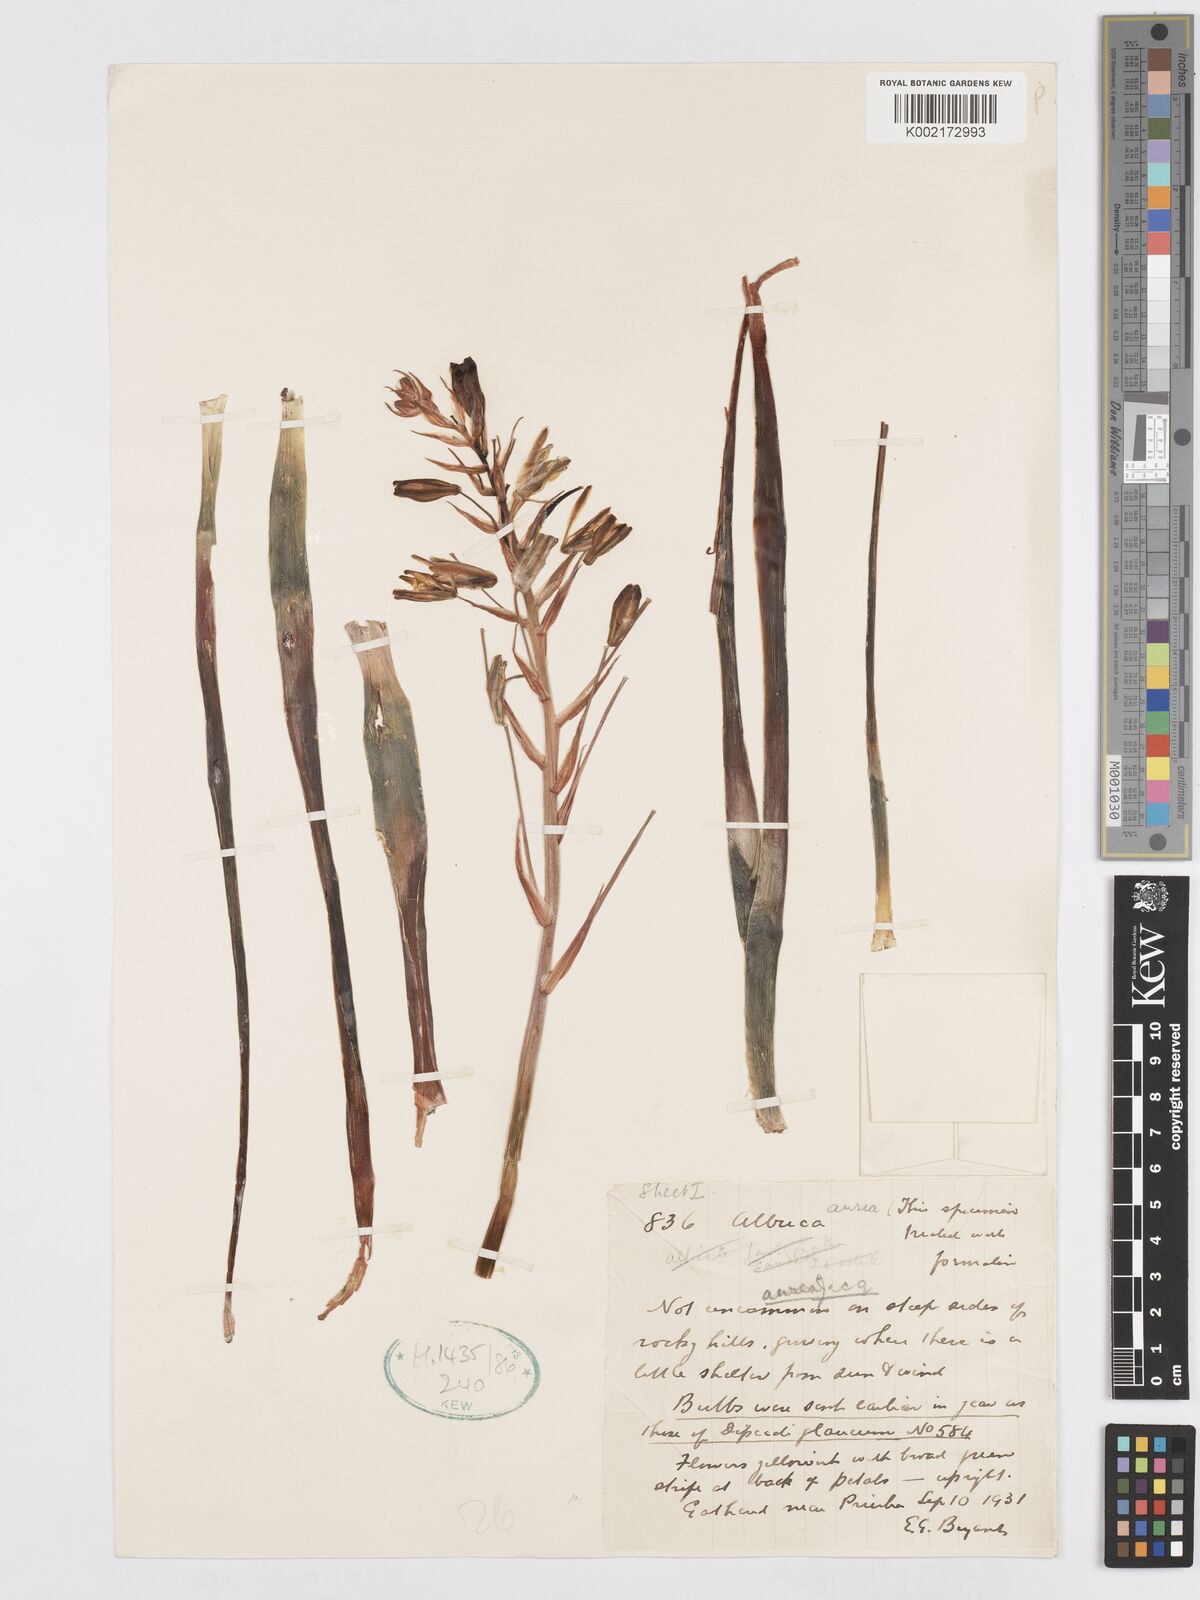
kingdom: Plantae
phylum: Tracheophyta
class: Liliopsida
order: Asparagales
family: Asparagaceae
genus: Albuca
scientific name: Albuca aurea
